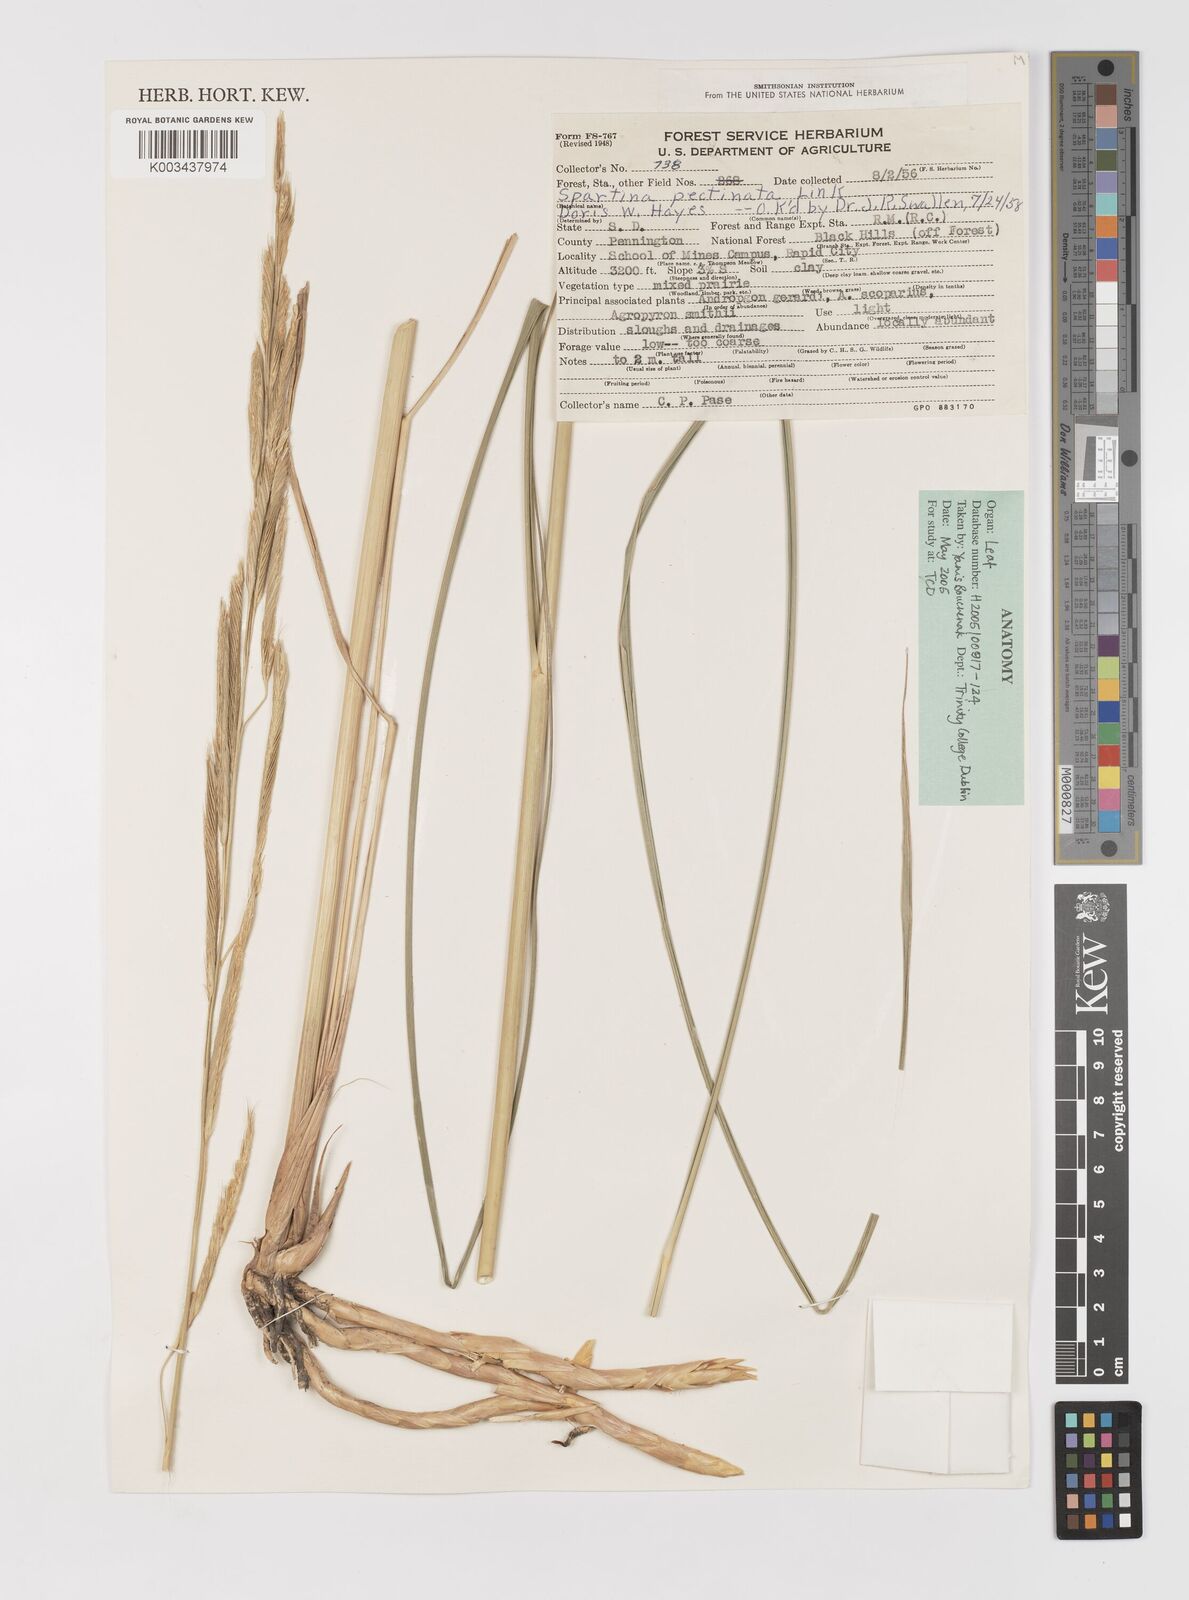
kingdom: Plantae
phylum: Tracheophyta
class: Liliopsida
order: Poales
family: Poaceae
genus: Sporobolus
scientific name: Sporobolus michauxianus
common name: Freshwater cordgrass
